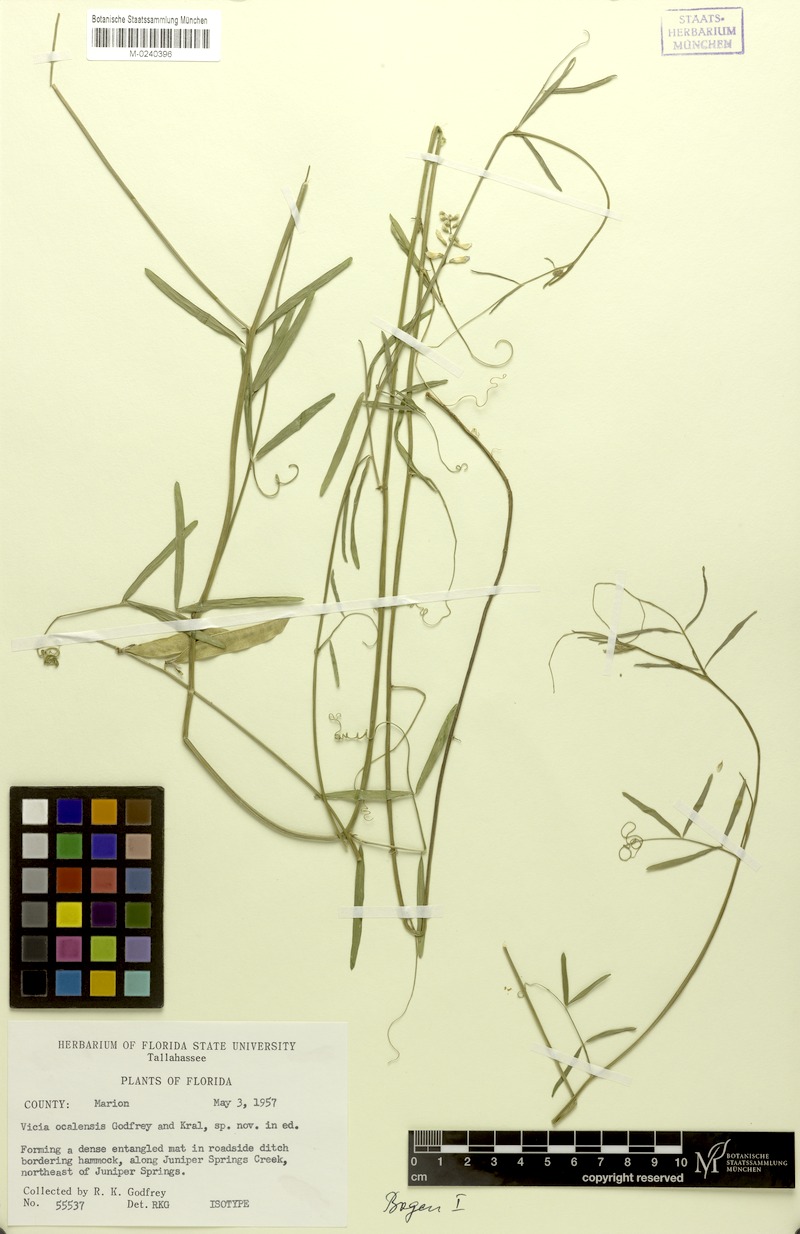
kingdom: Plantae
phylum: Tracheophyta
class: Magnoliopsida
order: Fabales
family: Fabaceae
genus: Vicia
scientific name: Vicia ocalensis
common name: Ocala vetch
